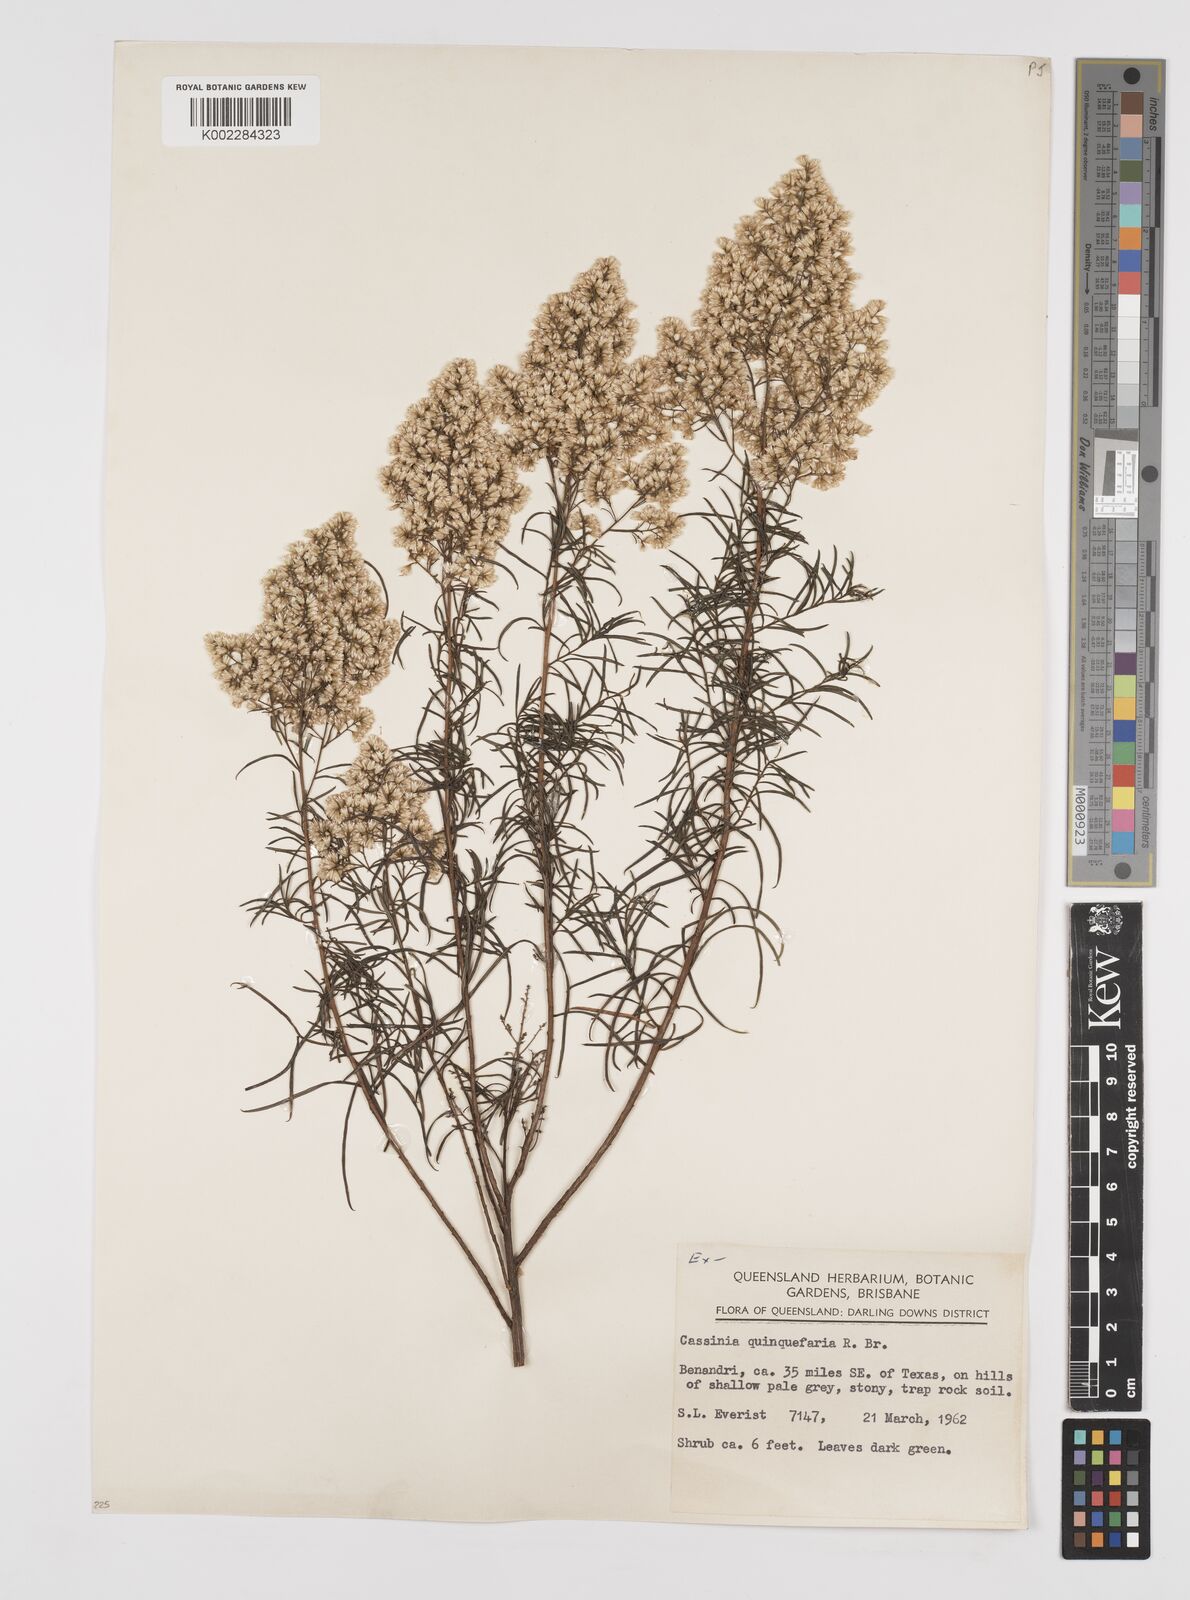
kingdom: Plantae
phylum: Tracheophyta
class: Magnoliopsida
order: Asterales
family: Asteraceae
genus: Cassinia
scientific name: Cassinia quinquefaria
